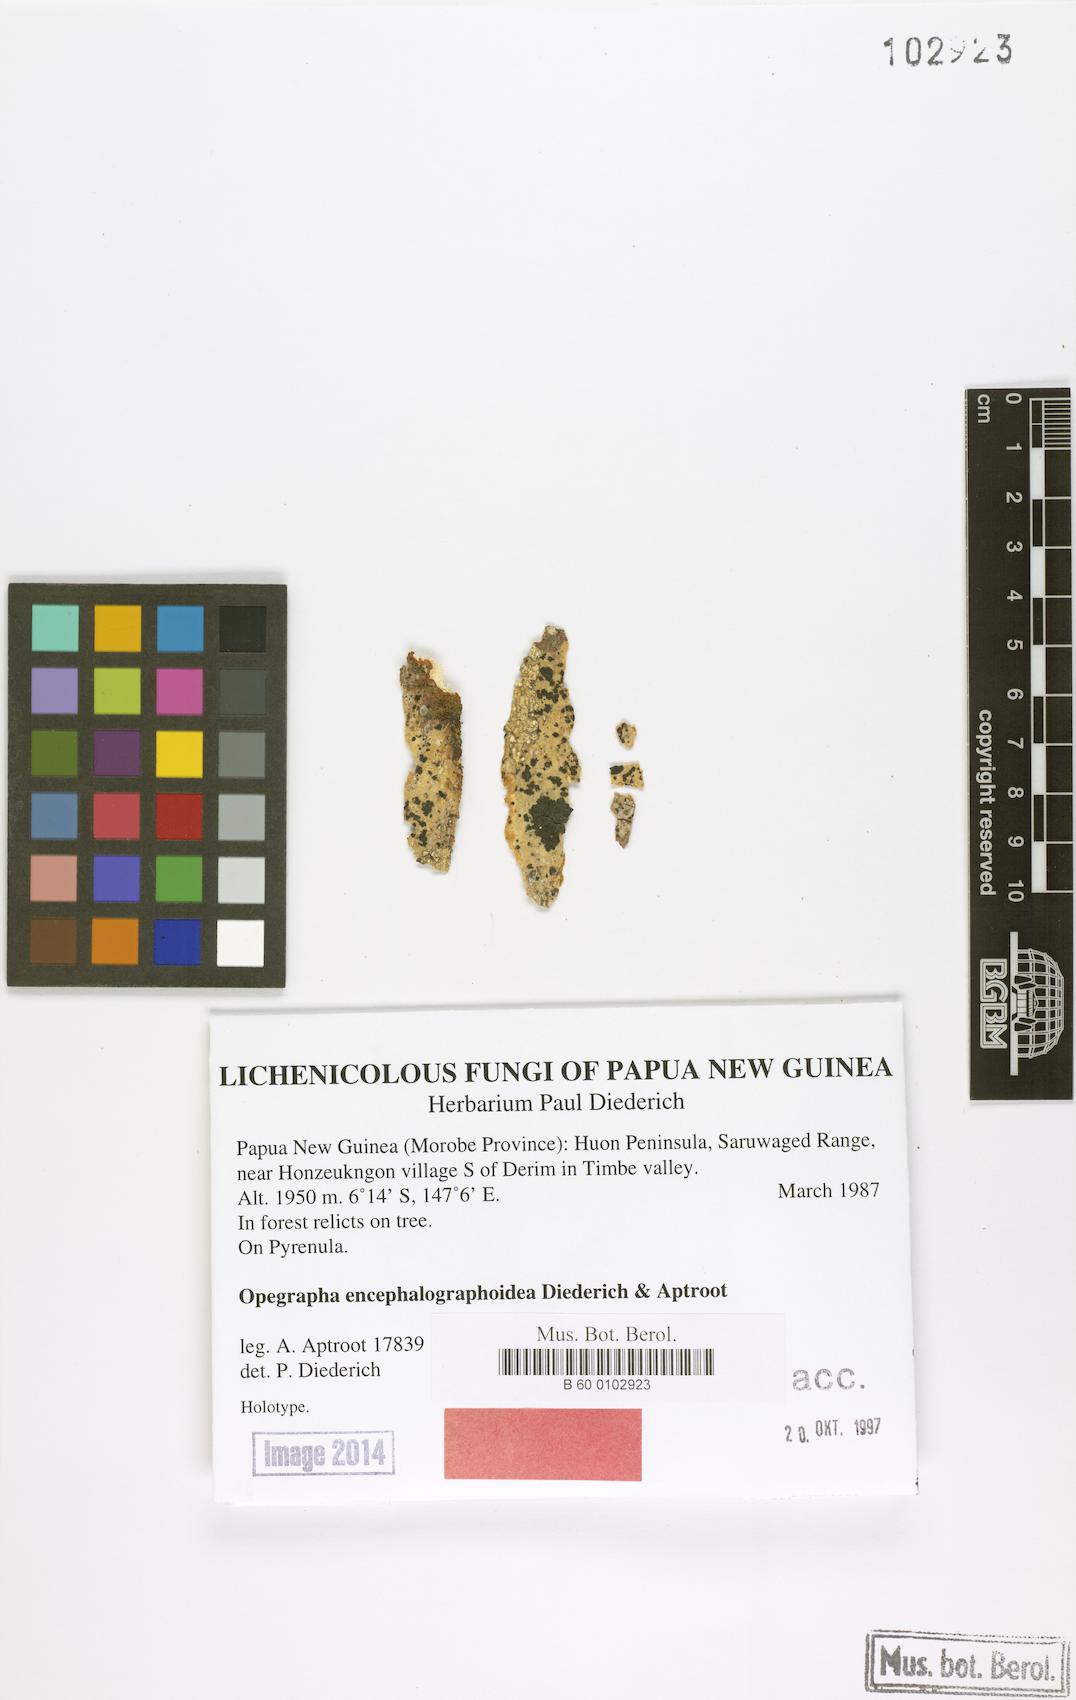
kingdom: Fungi
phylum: Ascomycota
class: Arthoniomycetes
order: Arthoniales
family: Opegraphaceae
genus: Opegrapha
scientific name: Opegrapha
